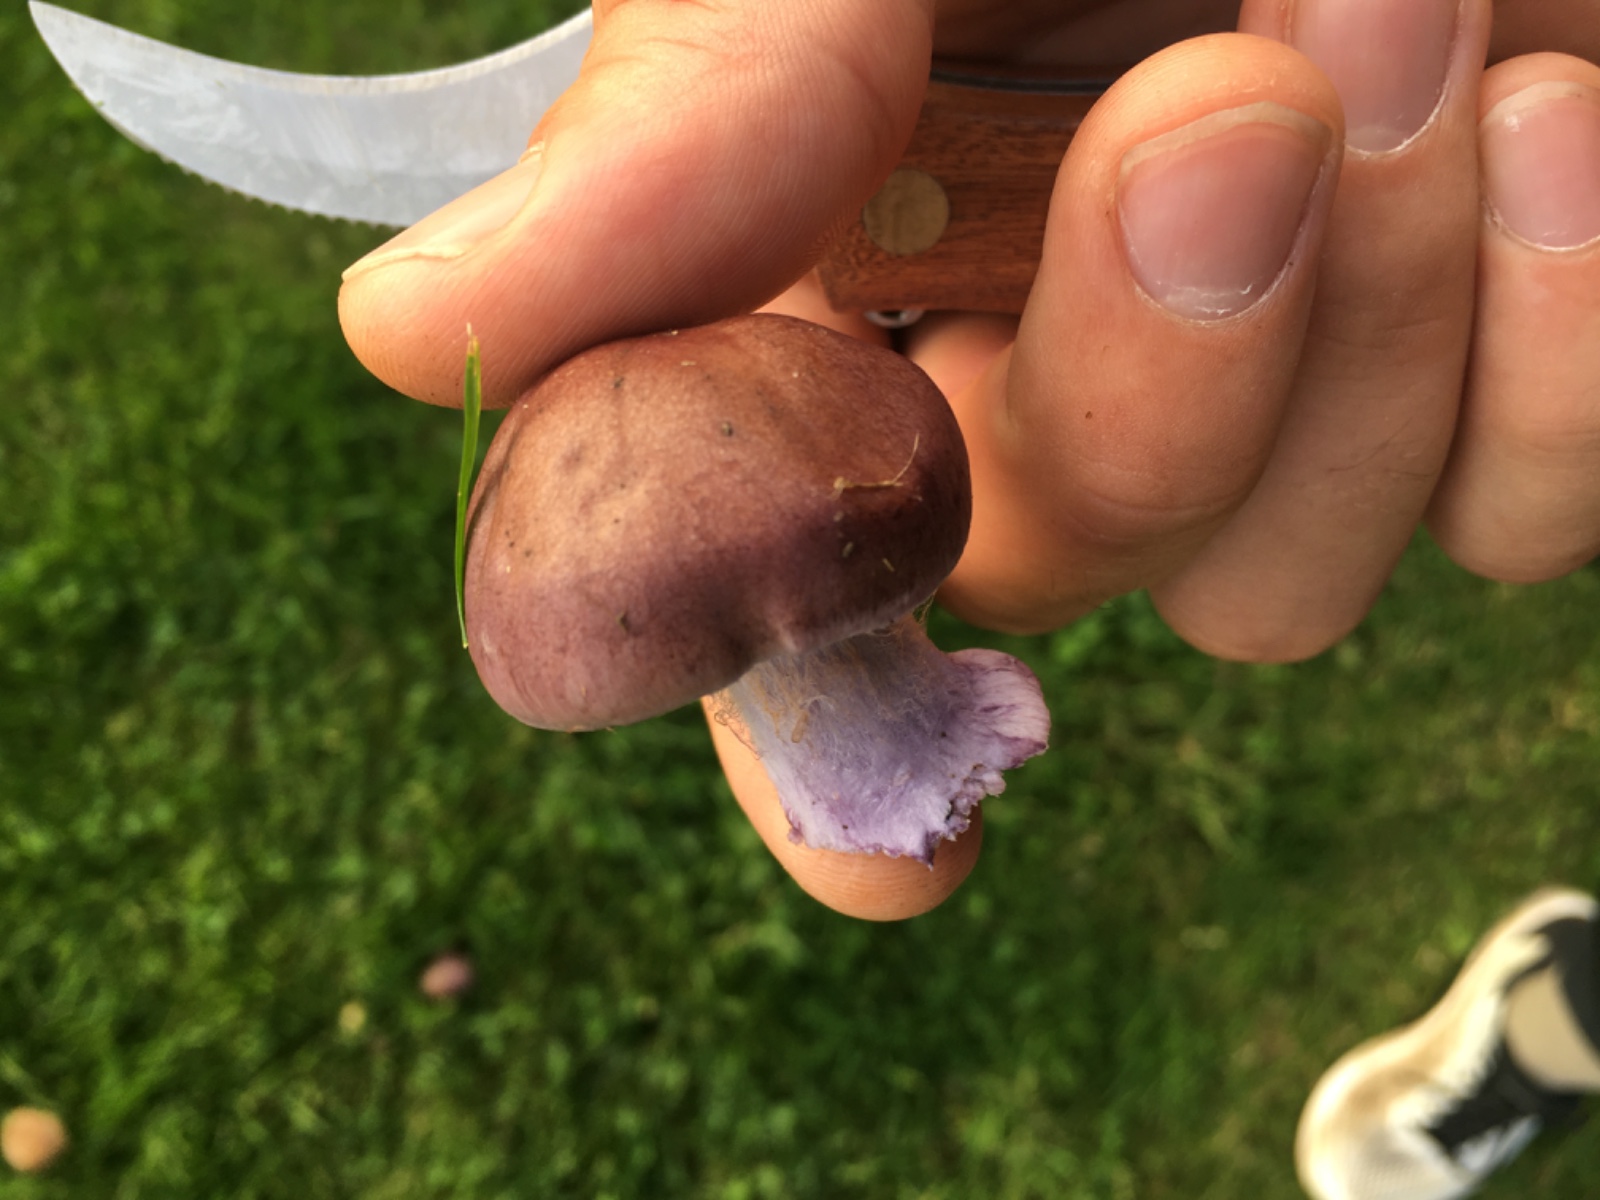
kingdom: Fungi
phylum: Basidiomycota
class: Agaricomycetes
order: Agaricales
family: Cortinariaceae
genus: Thaxterogaster
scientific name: Thaxterogaster purpurascens
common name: purpurbrun slørhat
